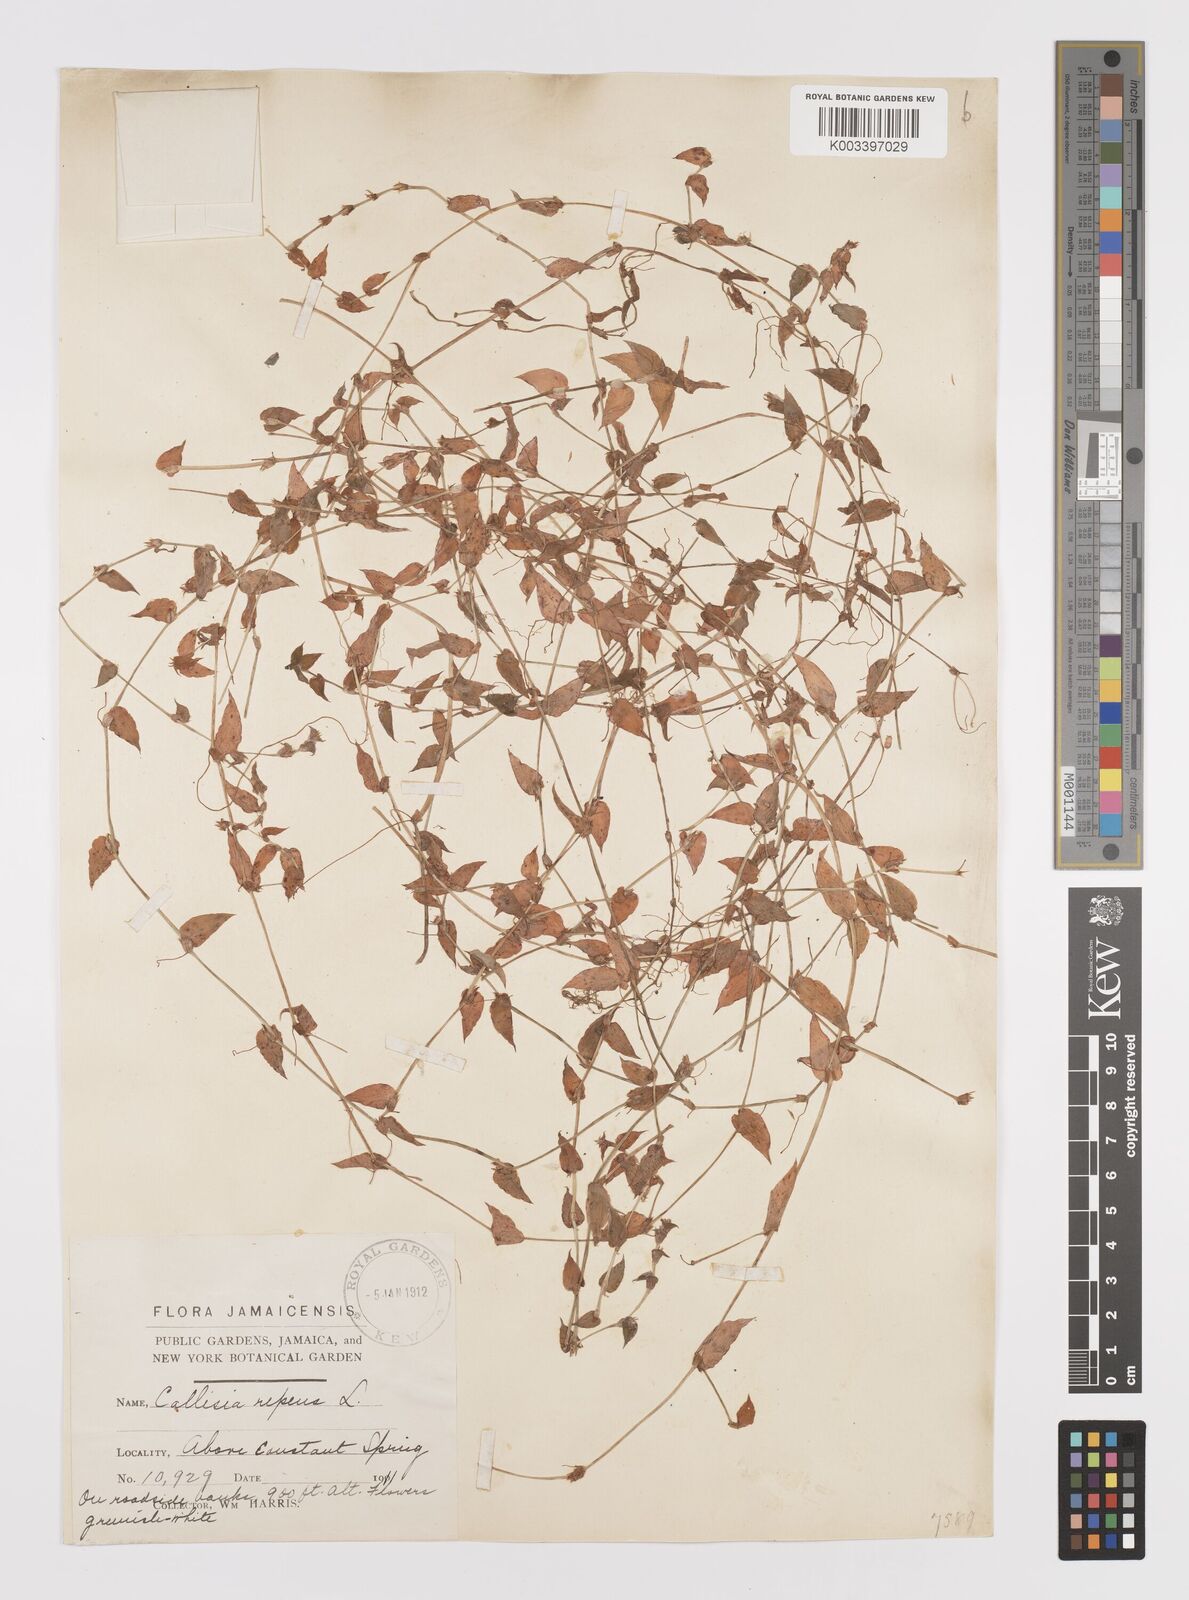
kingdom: Plantae
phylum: Tracheophyta
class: Liliopsida
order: Commelinales
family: Commelinaceae
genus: Callisia
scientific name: Callisia repens
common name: Creeping inchplant
